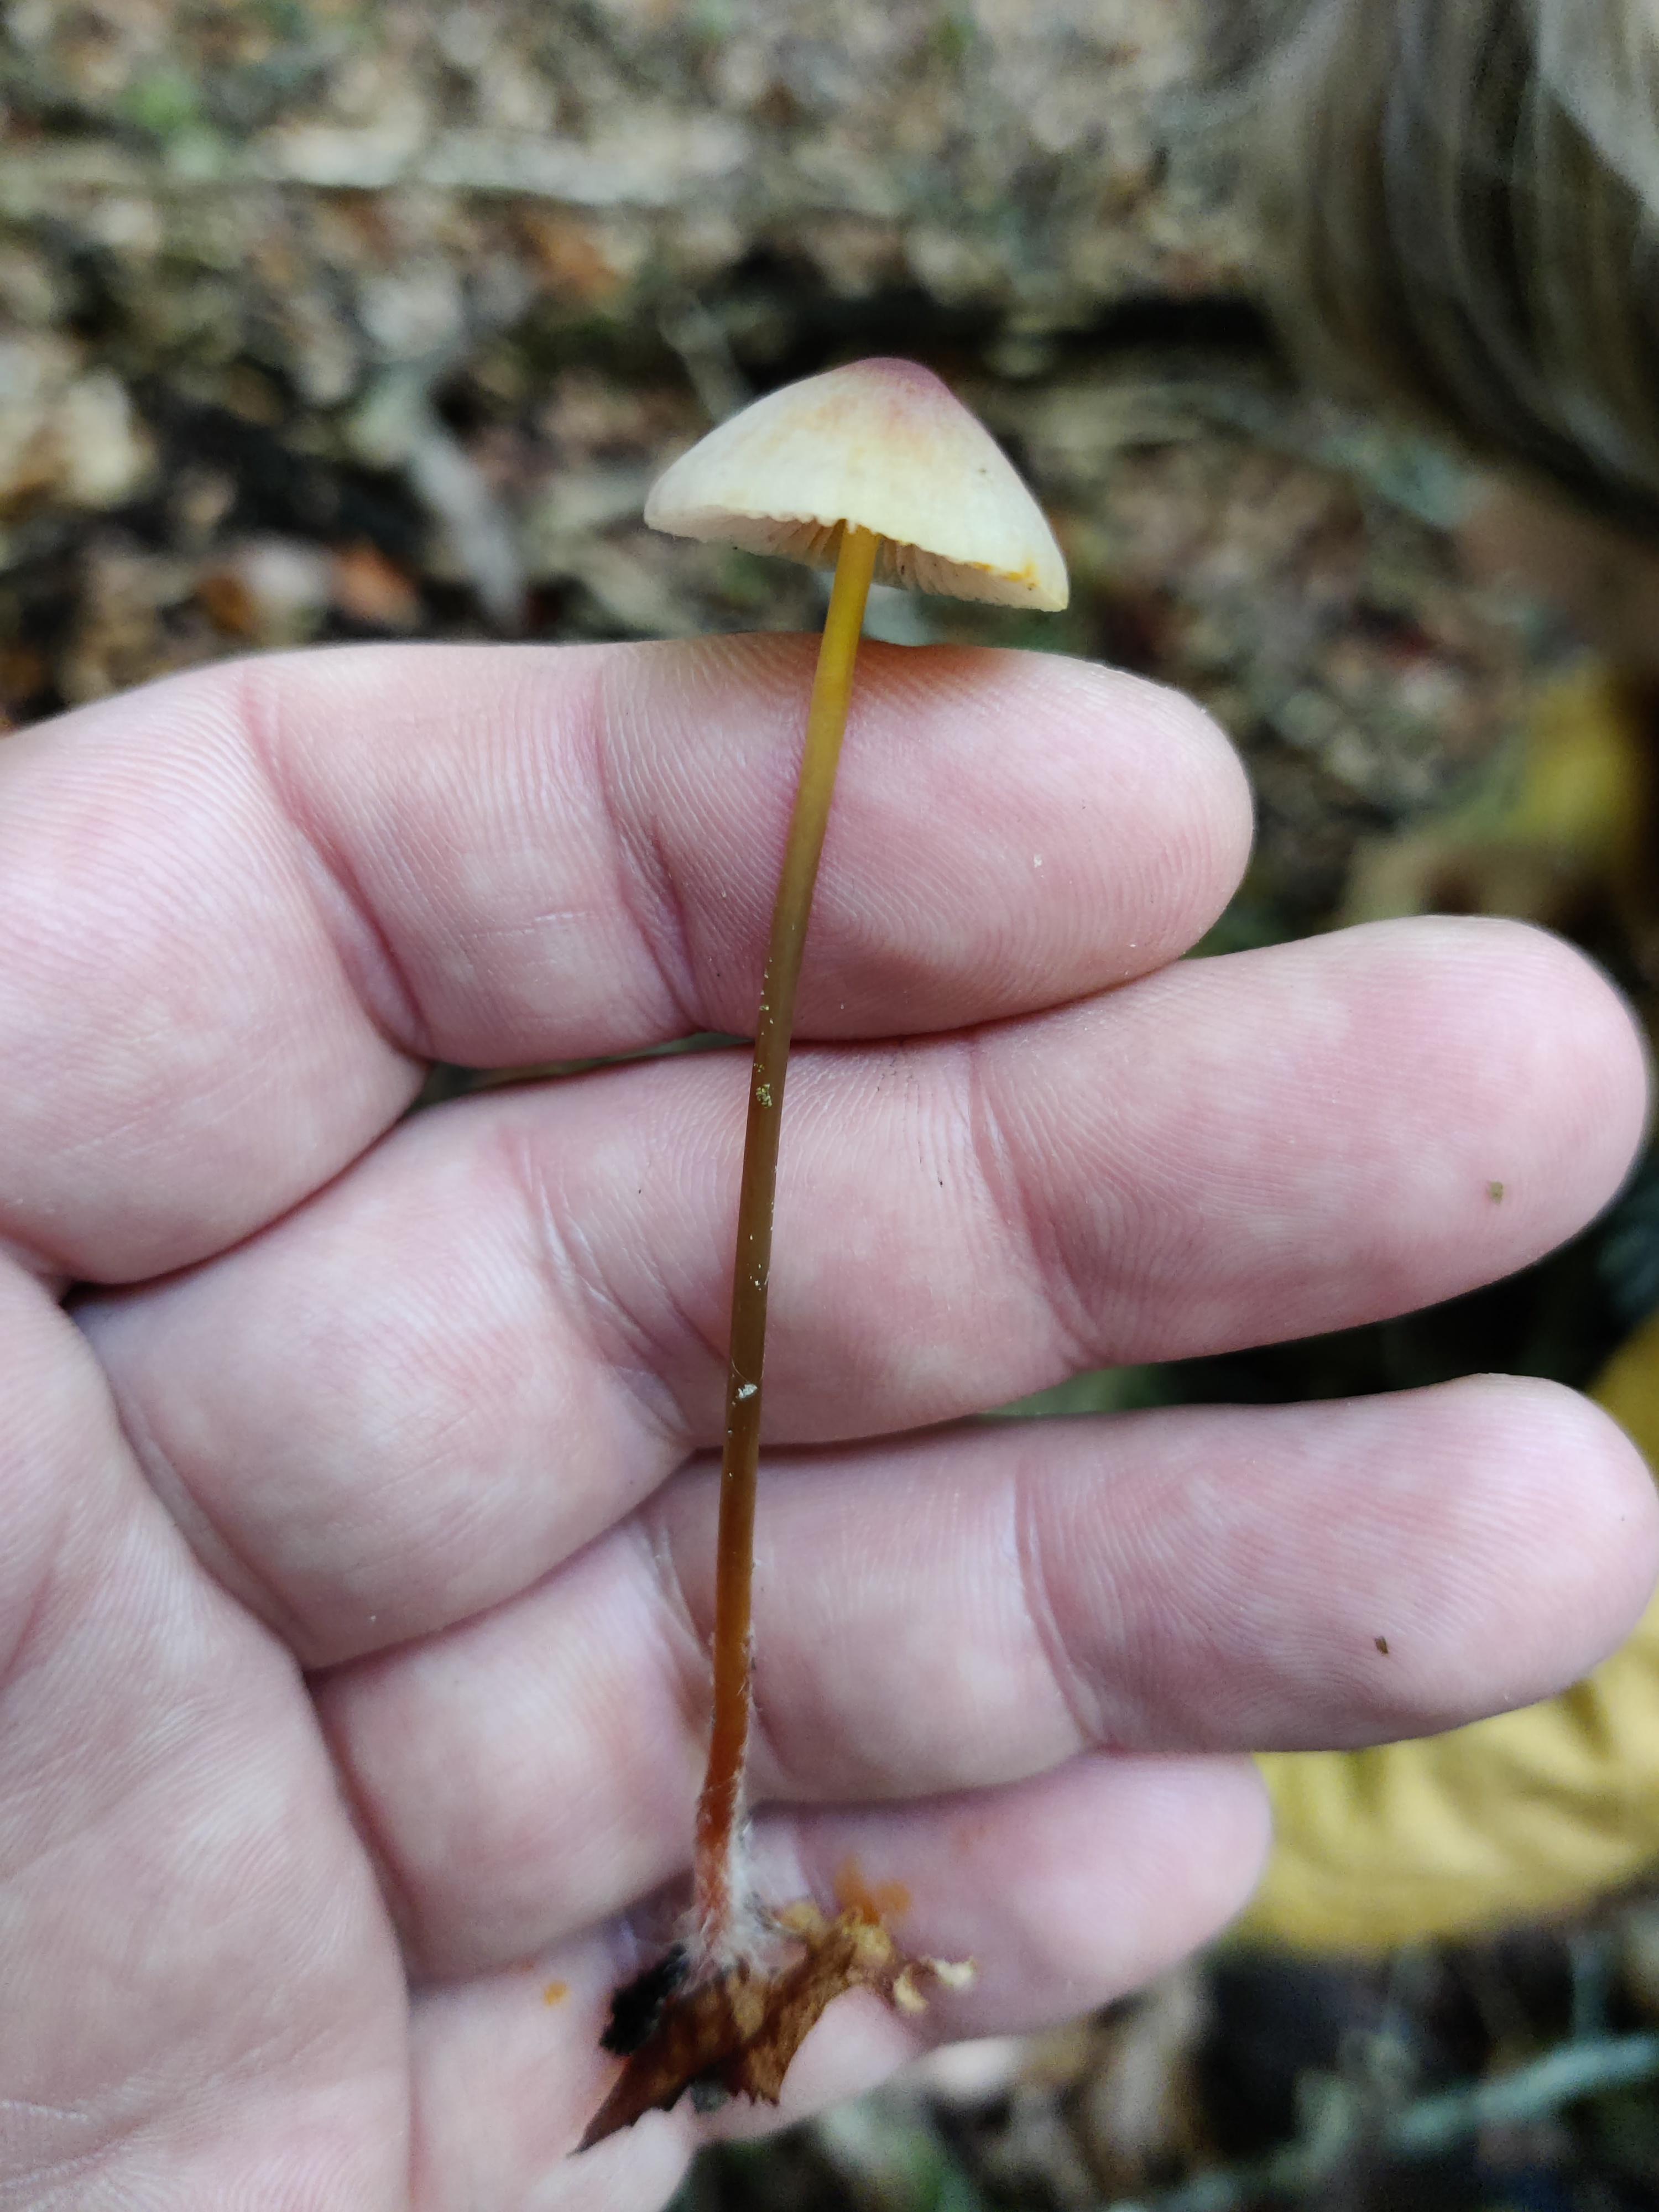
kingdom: Fungi
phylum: Basidiomycota
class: Agaricomycetes
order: Agaricales
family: Mycenaceae
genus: Mycena
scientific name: Mycena crocata
